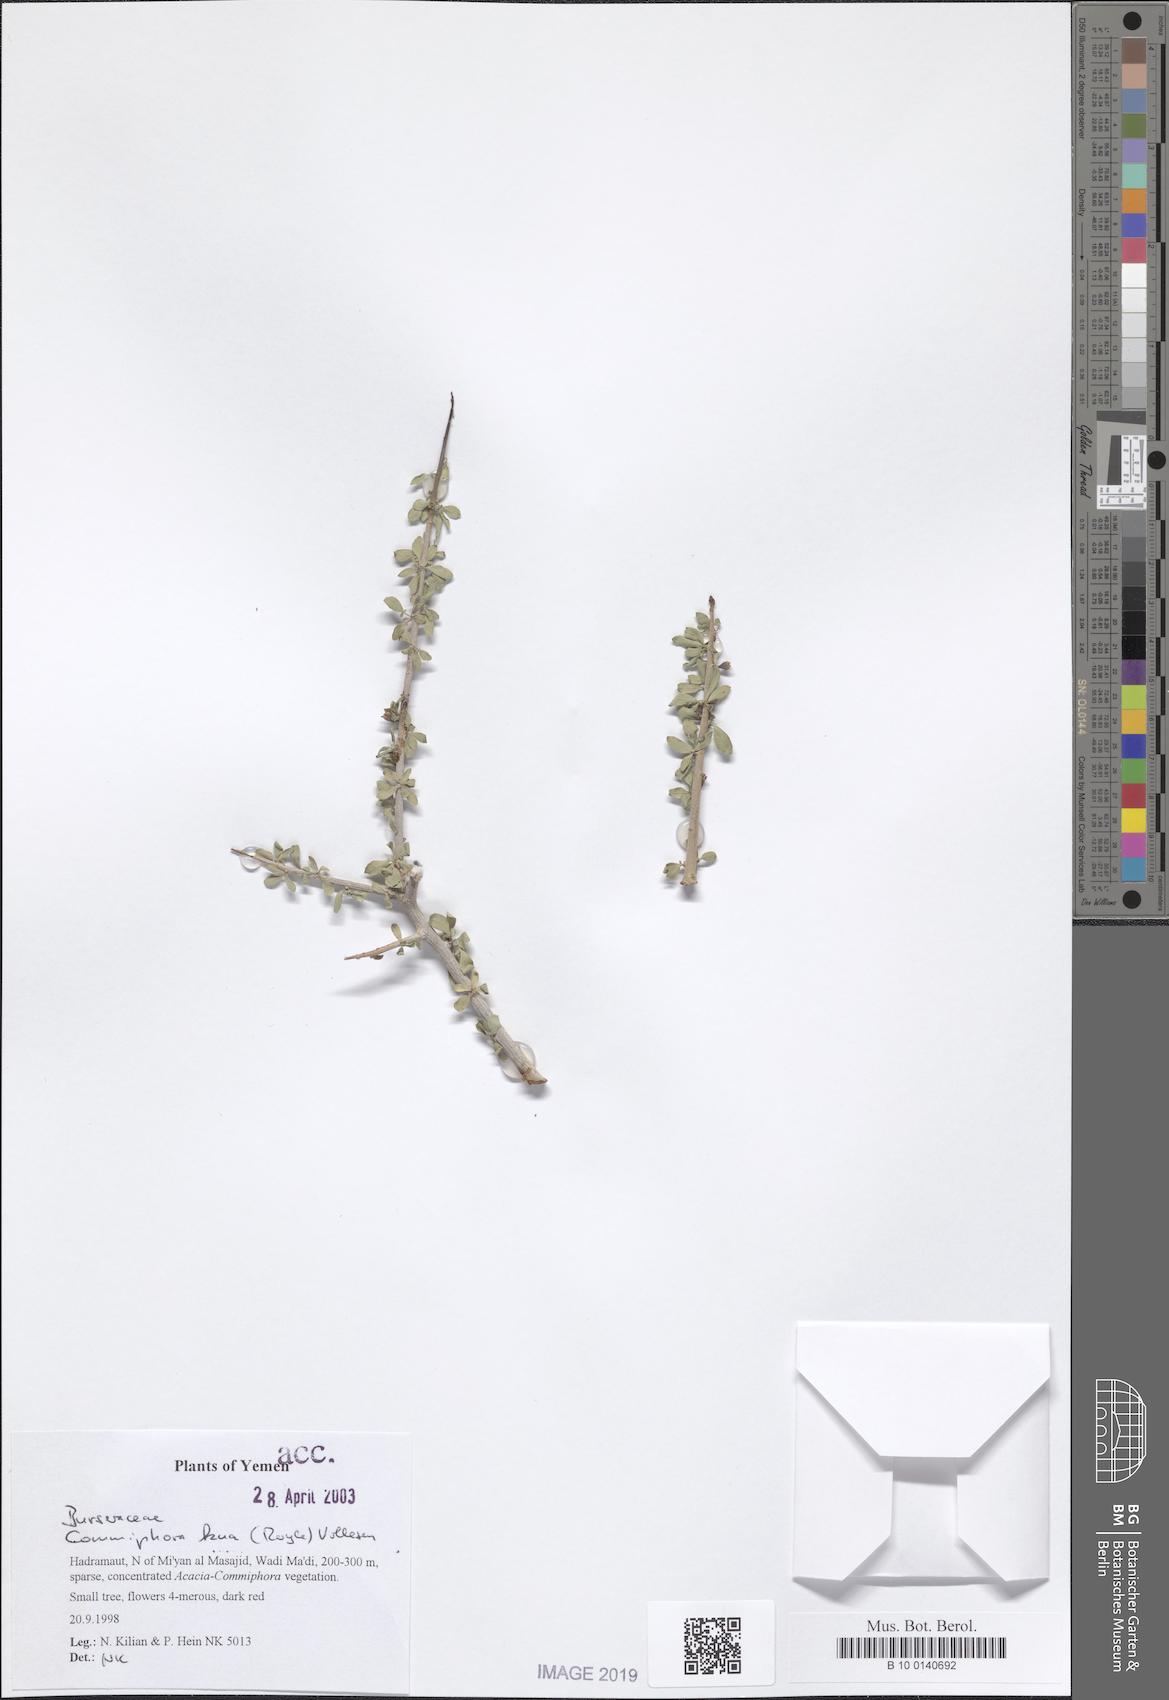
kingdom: Plantae
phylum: Tracheophyta
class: Magnoliopsida
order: Sapindales
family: Burseraceae
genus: Commiphora
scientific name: Commiphora kua
